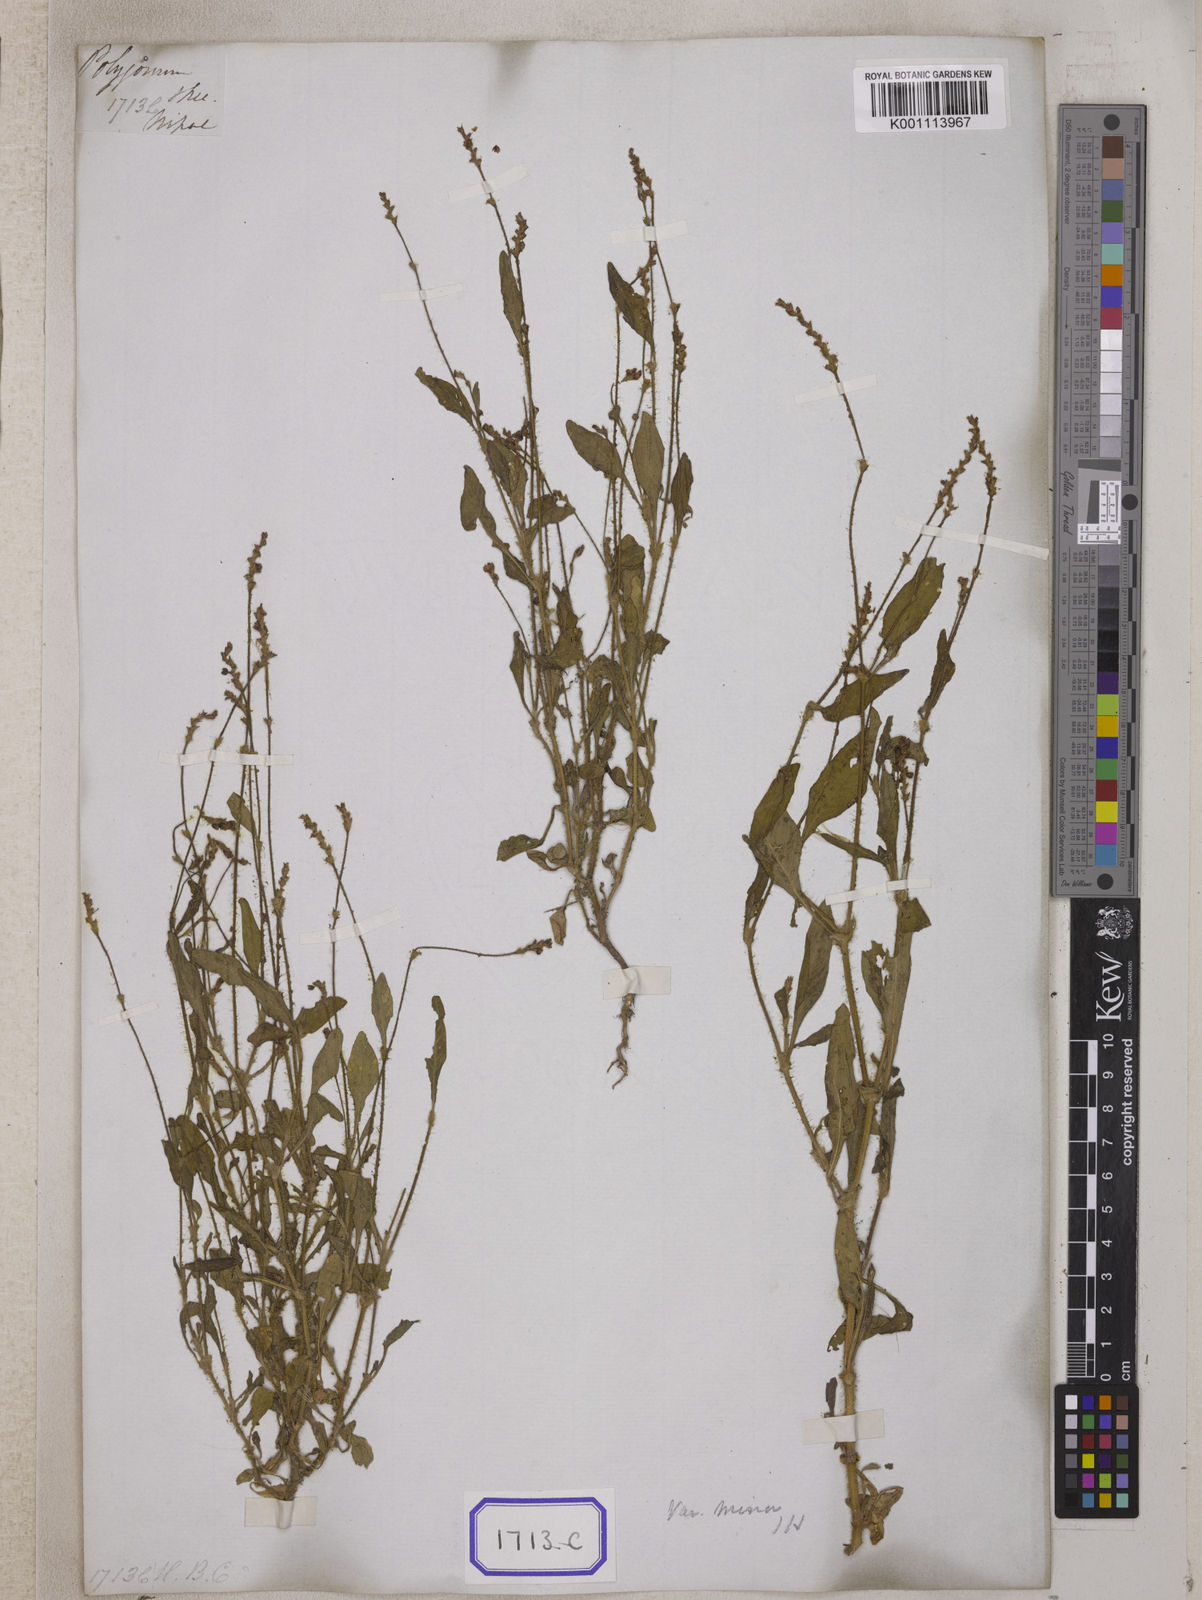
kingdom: Plantae
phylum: Tracheophyta
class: Magnoliopsida
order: Caryophyllales
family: Polygonaceae
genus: Polygonum
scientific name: Polygonum
